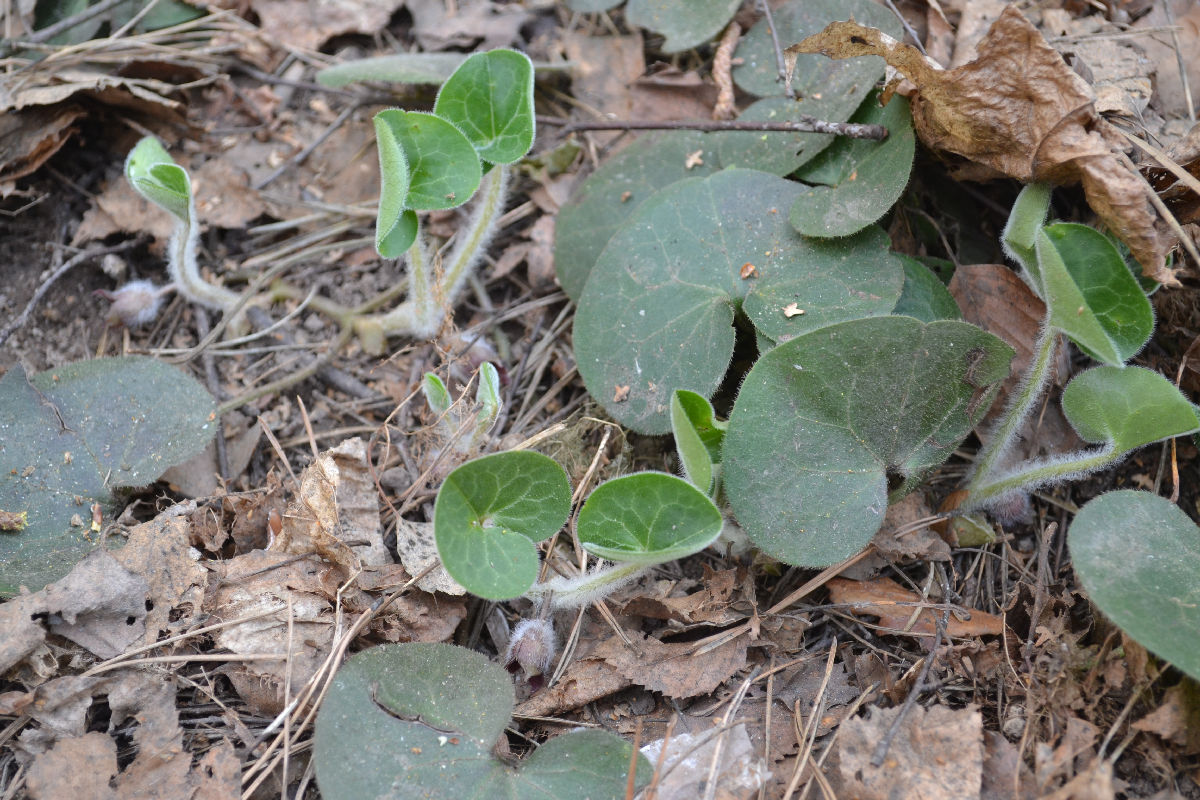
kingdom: Plantae
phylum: Tracheophyta
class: Magnoliopsida
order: Piperales
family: Aristolochiaceae
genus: Asarum
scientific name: Asarum europaeum
